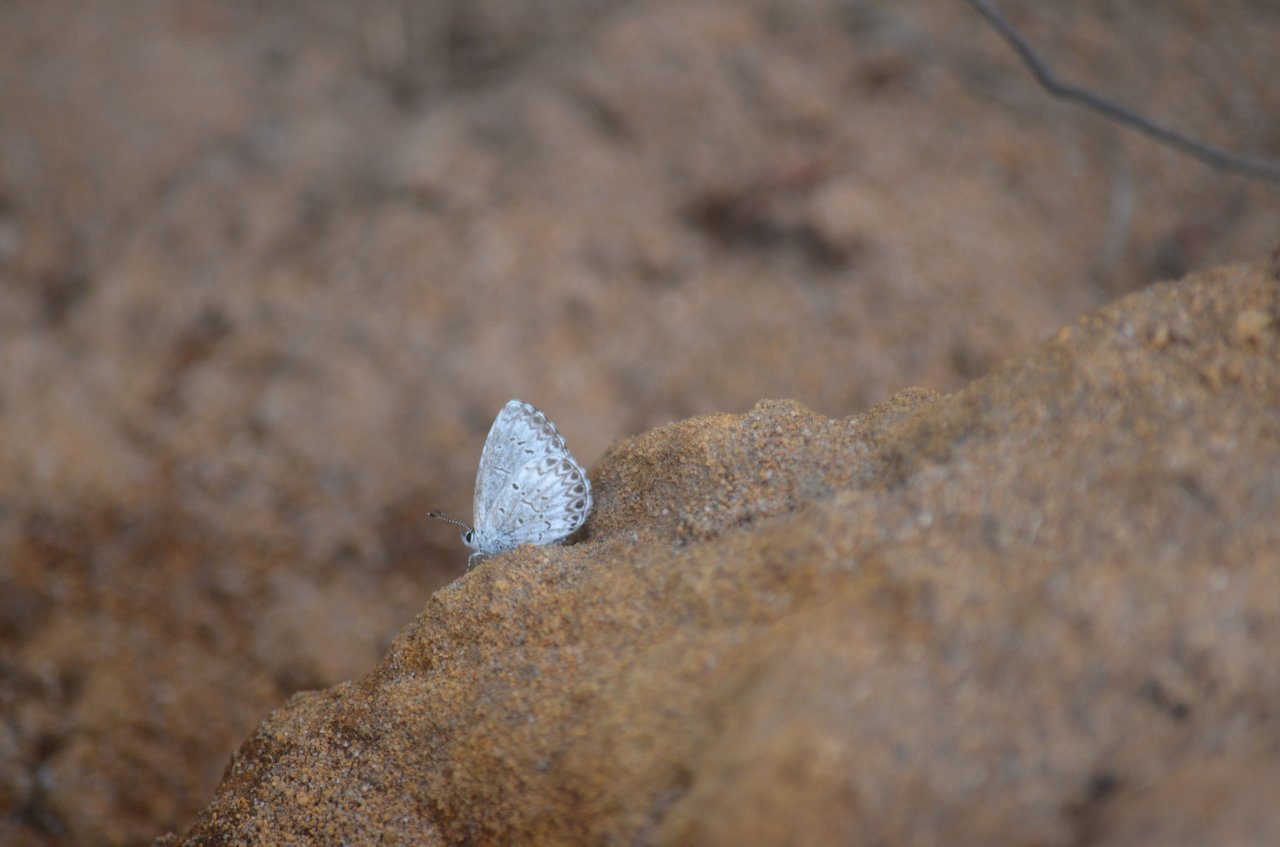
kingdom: Animalia
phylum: Arthropoda
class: Insecta
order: Lepidoptera
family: Lycaenidae
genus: Celastrina
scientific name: Celastrina lucia
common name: Northern Spring Azure
